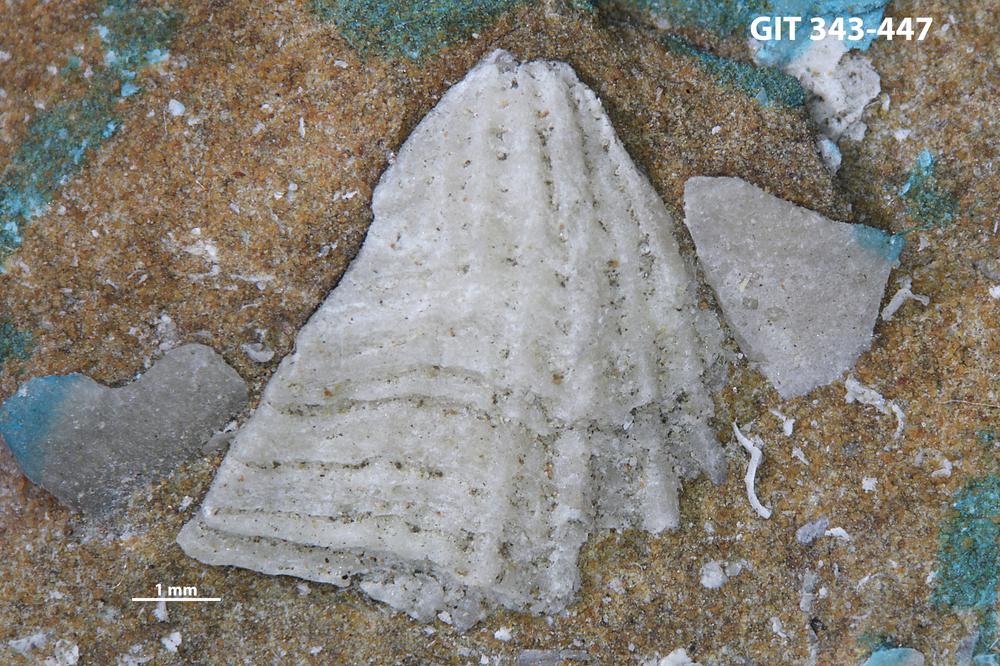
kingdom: Animalia
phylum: Brachiopoda
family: Kullervoidae
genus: Kullervo
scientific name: Kullervo
